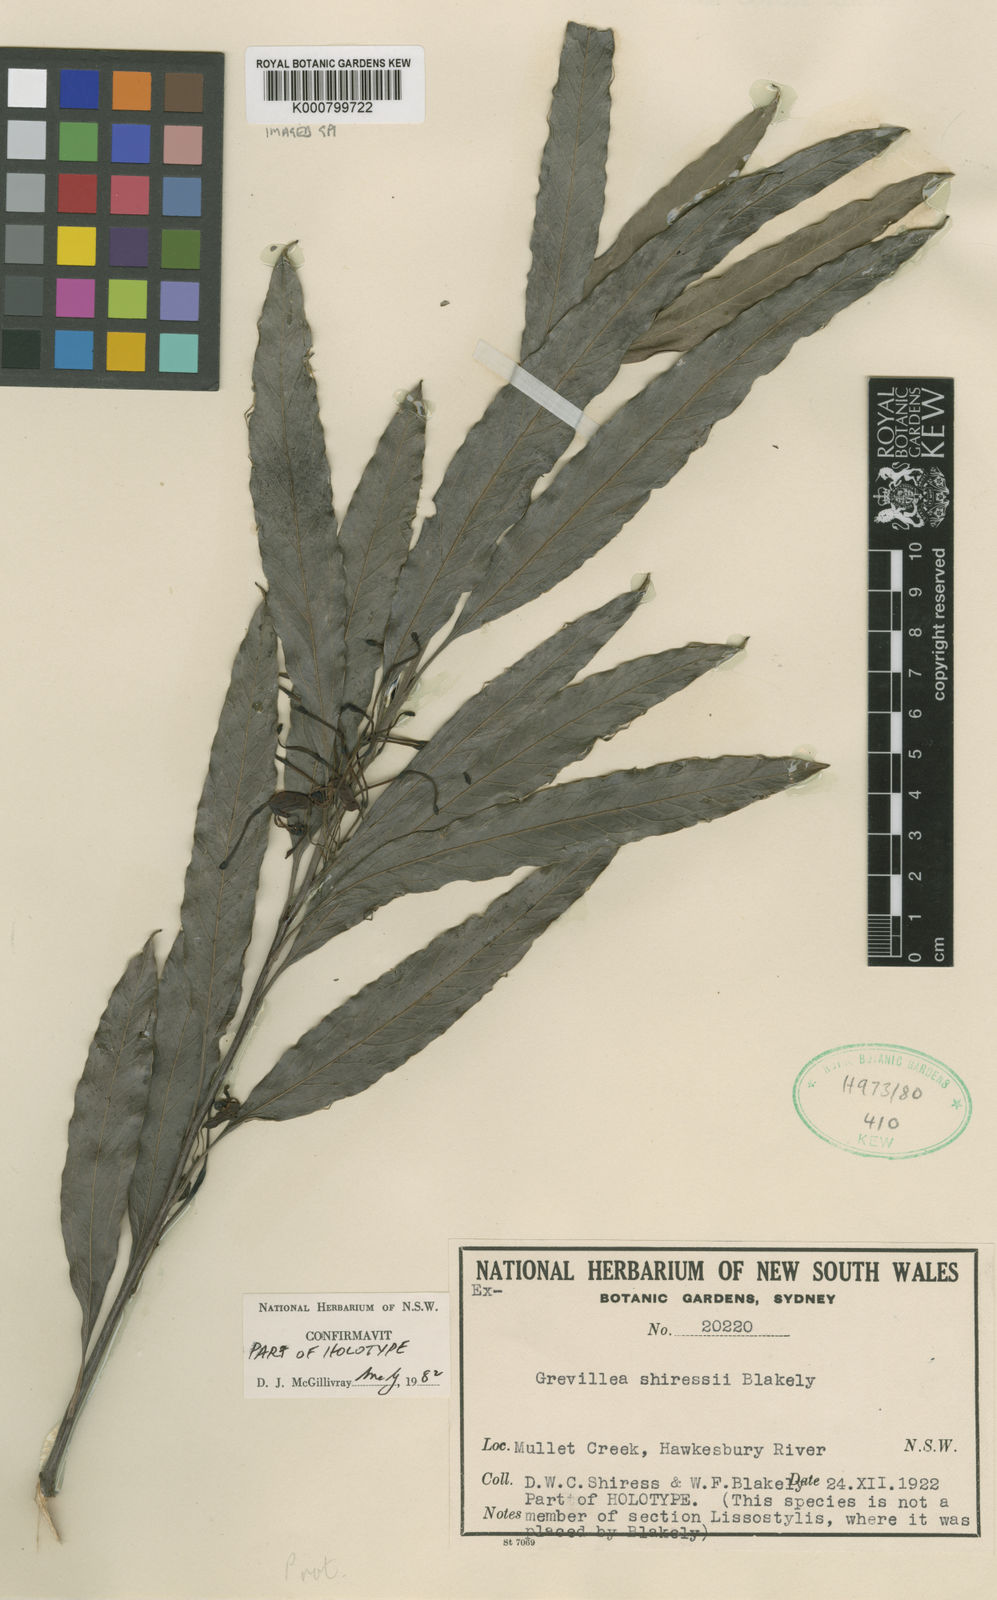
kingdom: Plantae
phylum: Tracheophyta
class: Magnoliopsida
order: Proteales
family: Proteaceae
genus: Grevillea
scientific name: Grevillea shiressii
